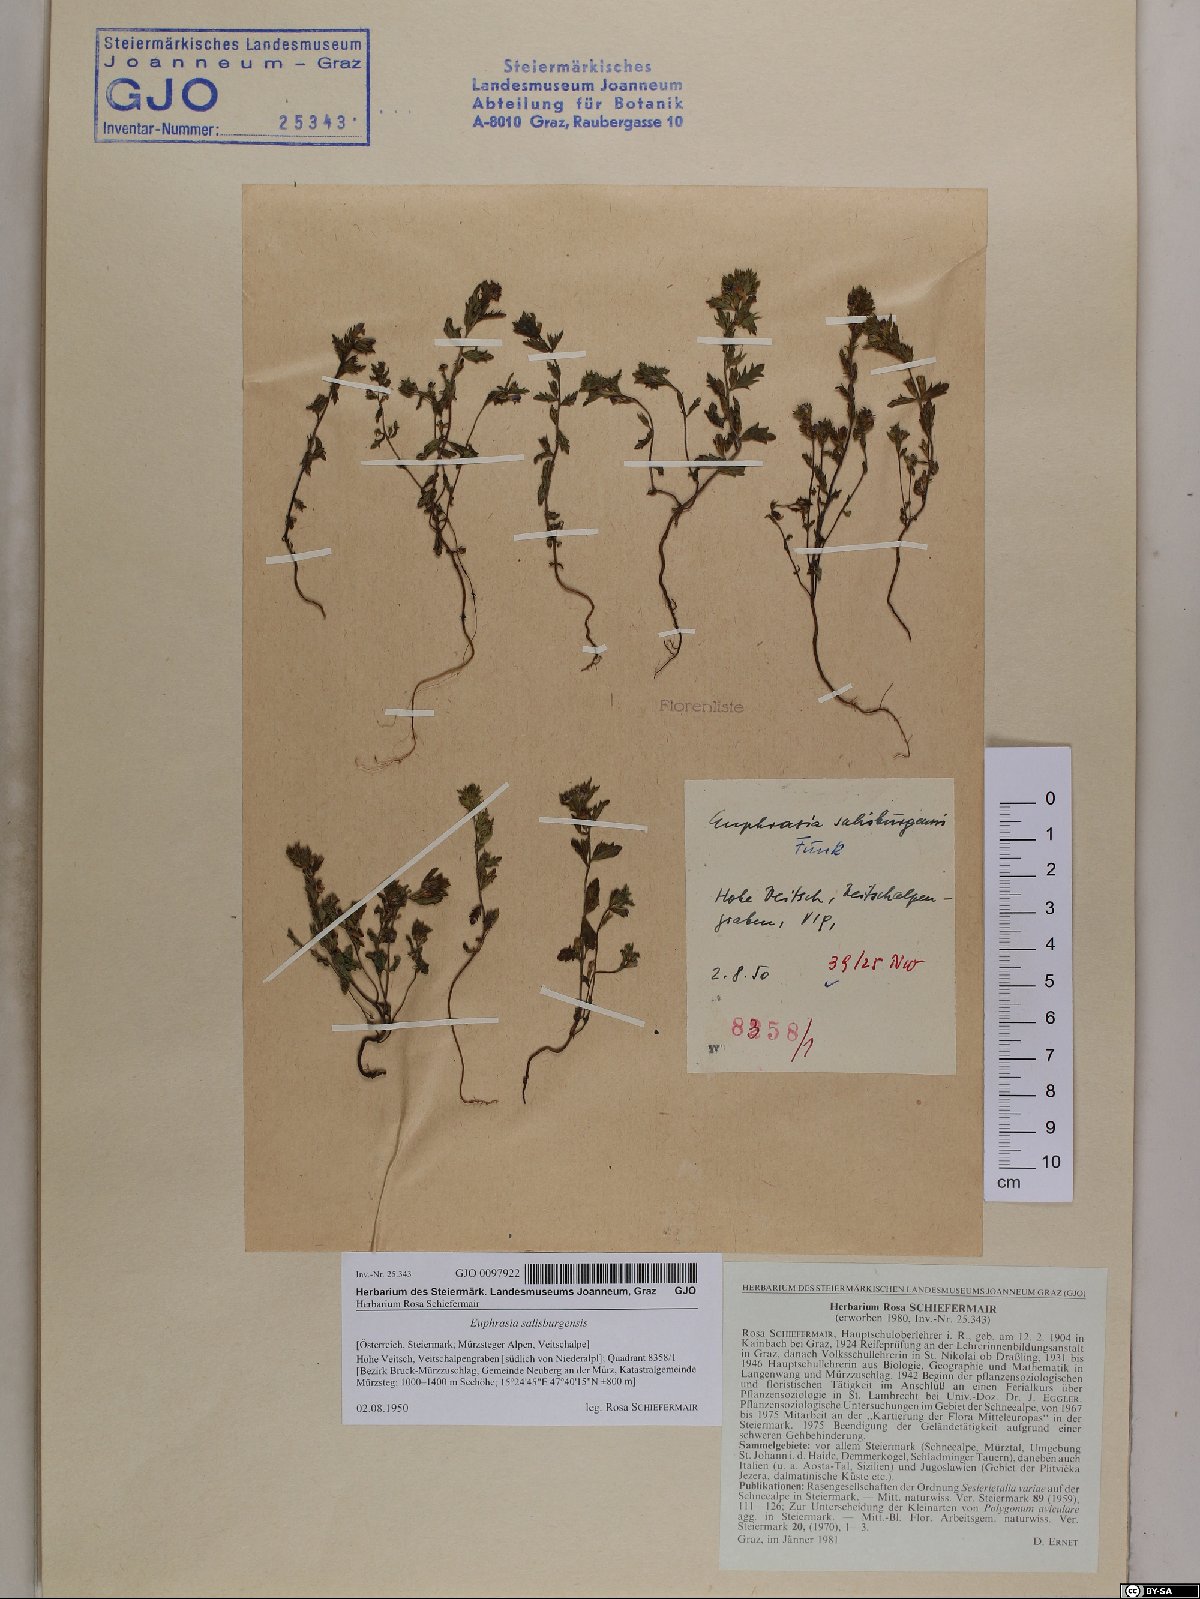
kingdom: Plantae
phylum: Tracheophyta
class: Magnoliopsida
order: Lamiales
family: Orobanchaceae
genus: Euphrasia
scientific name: Euphrasia salisburgensis
